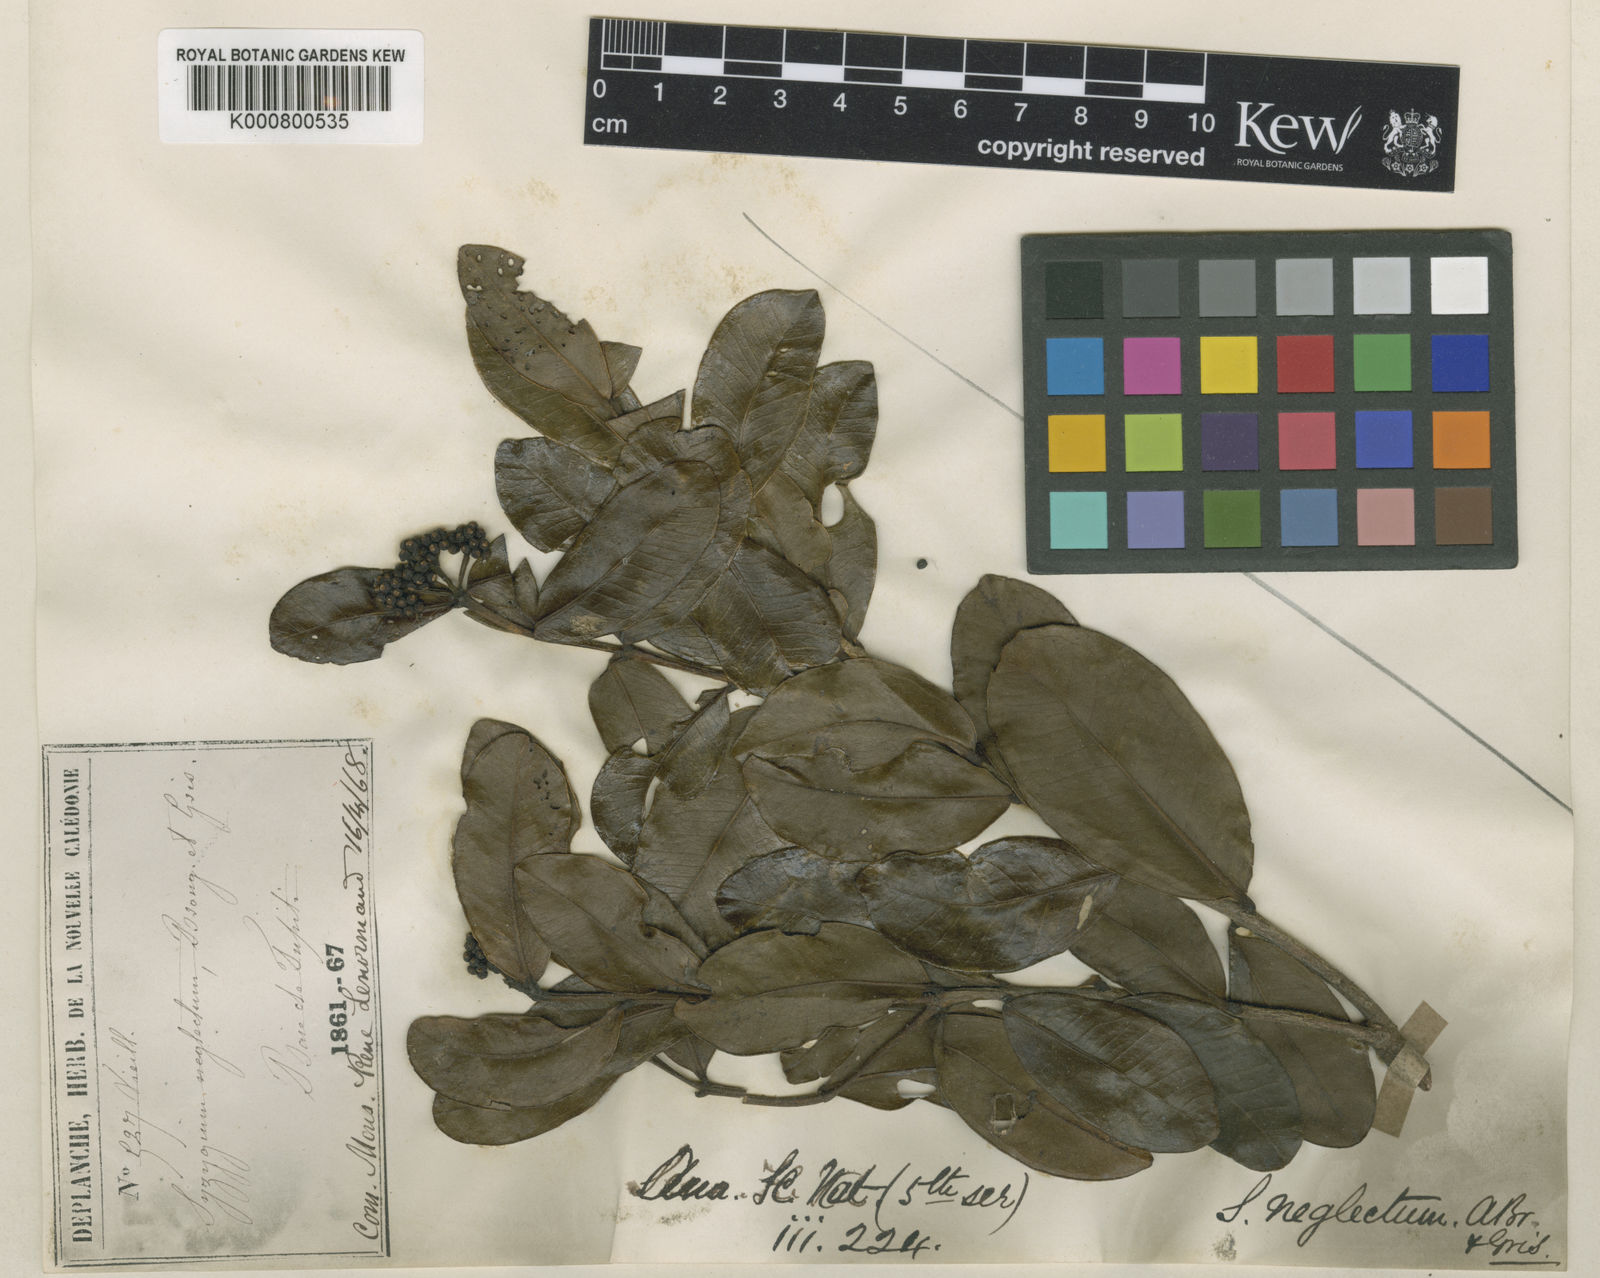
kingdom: Plantae
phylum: Tracheophyta
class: Magnoliopsida
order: Myrtales
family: Myrtaceae
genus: Syzygium
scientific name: Syzygium pancheri
